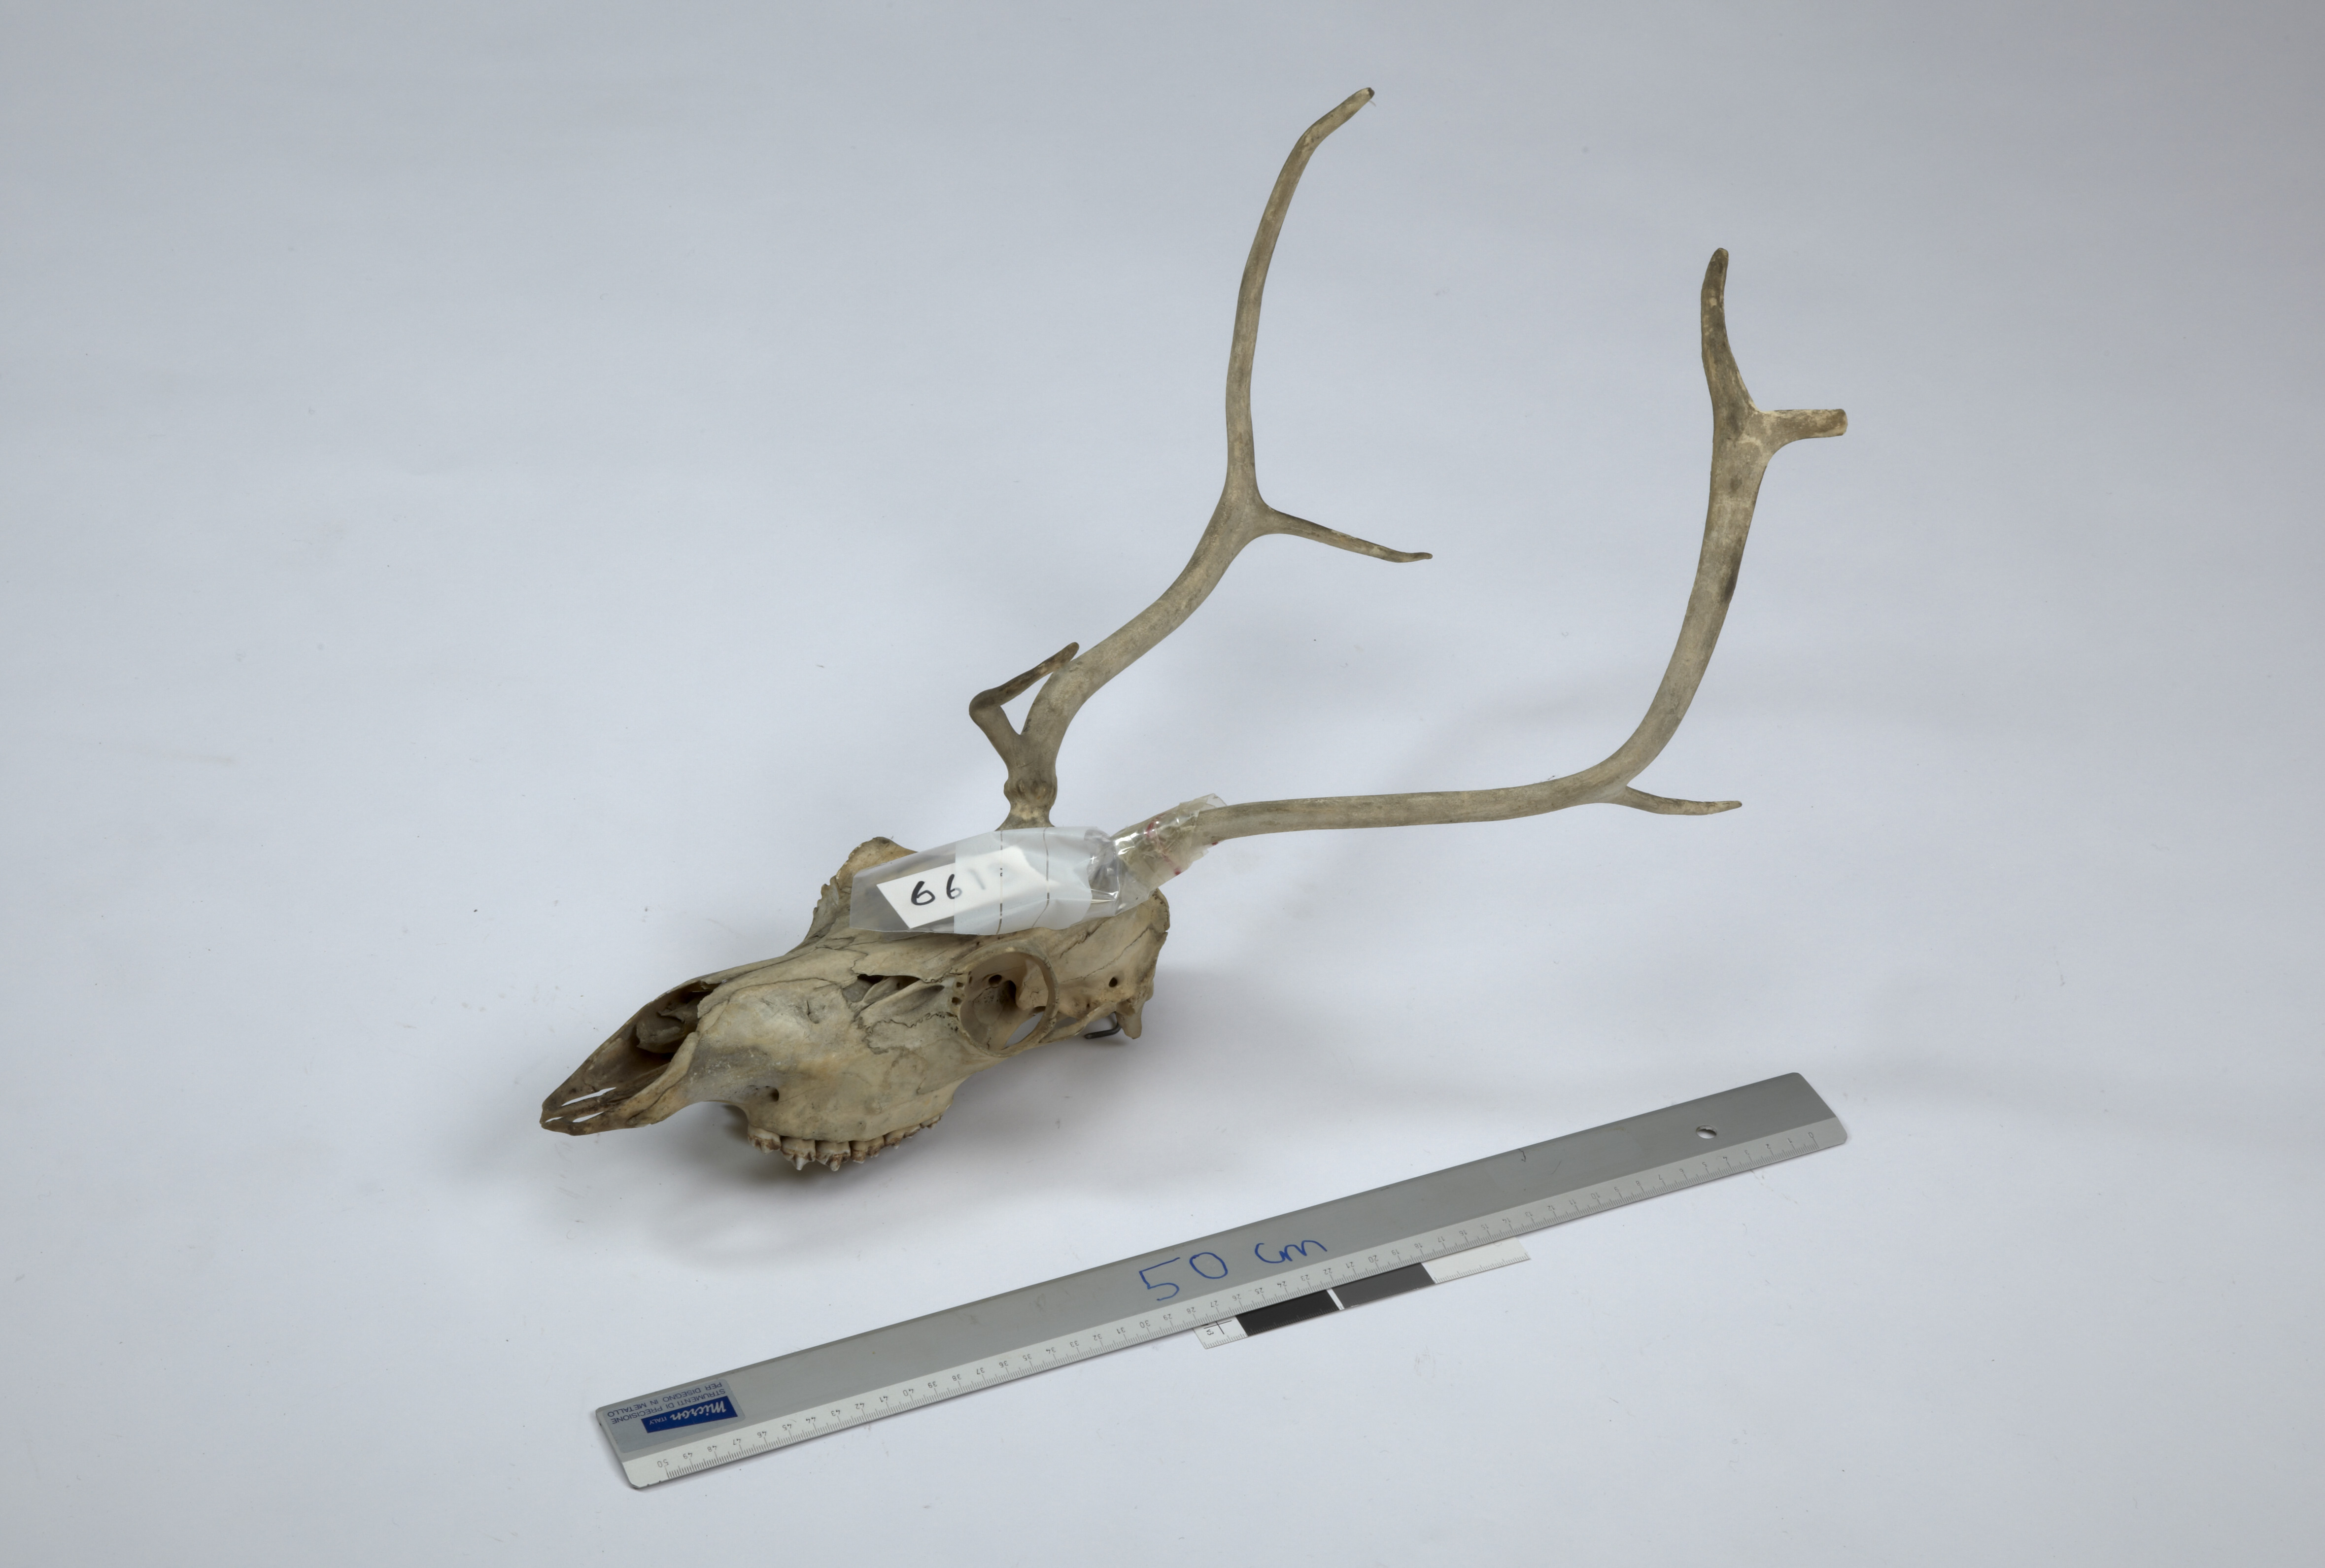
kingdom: Animalia
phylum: Chordata
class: Mammalia
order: Artiodactyla
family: Cervidae
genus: Rangifer
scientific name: Rangifer tarandus
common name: Reindeer
